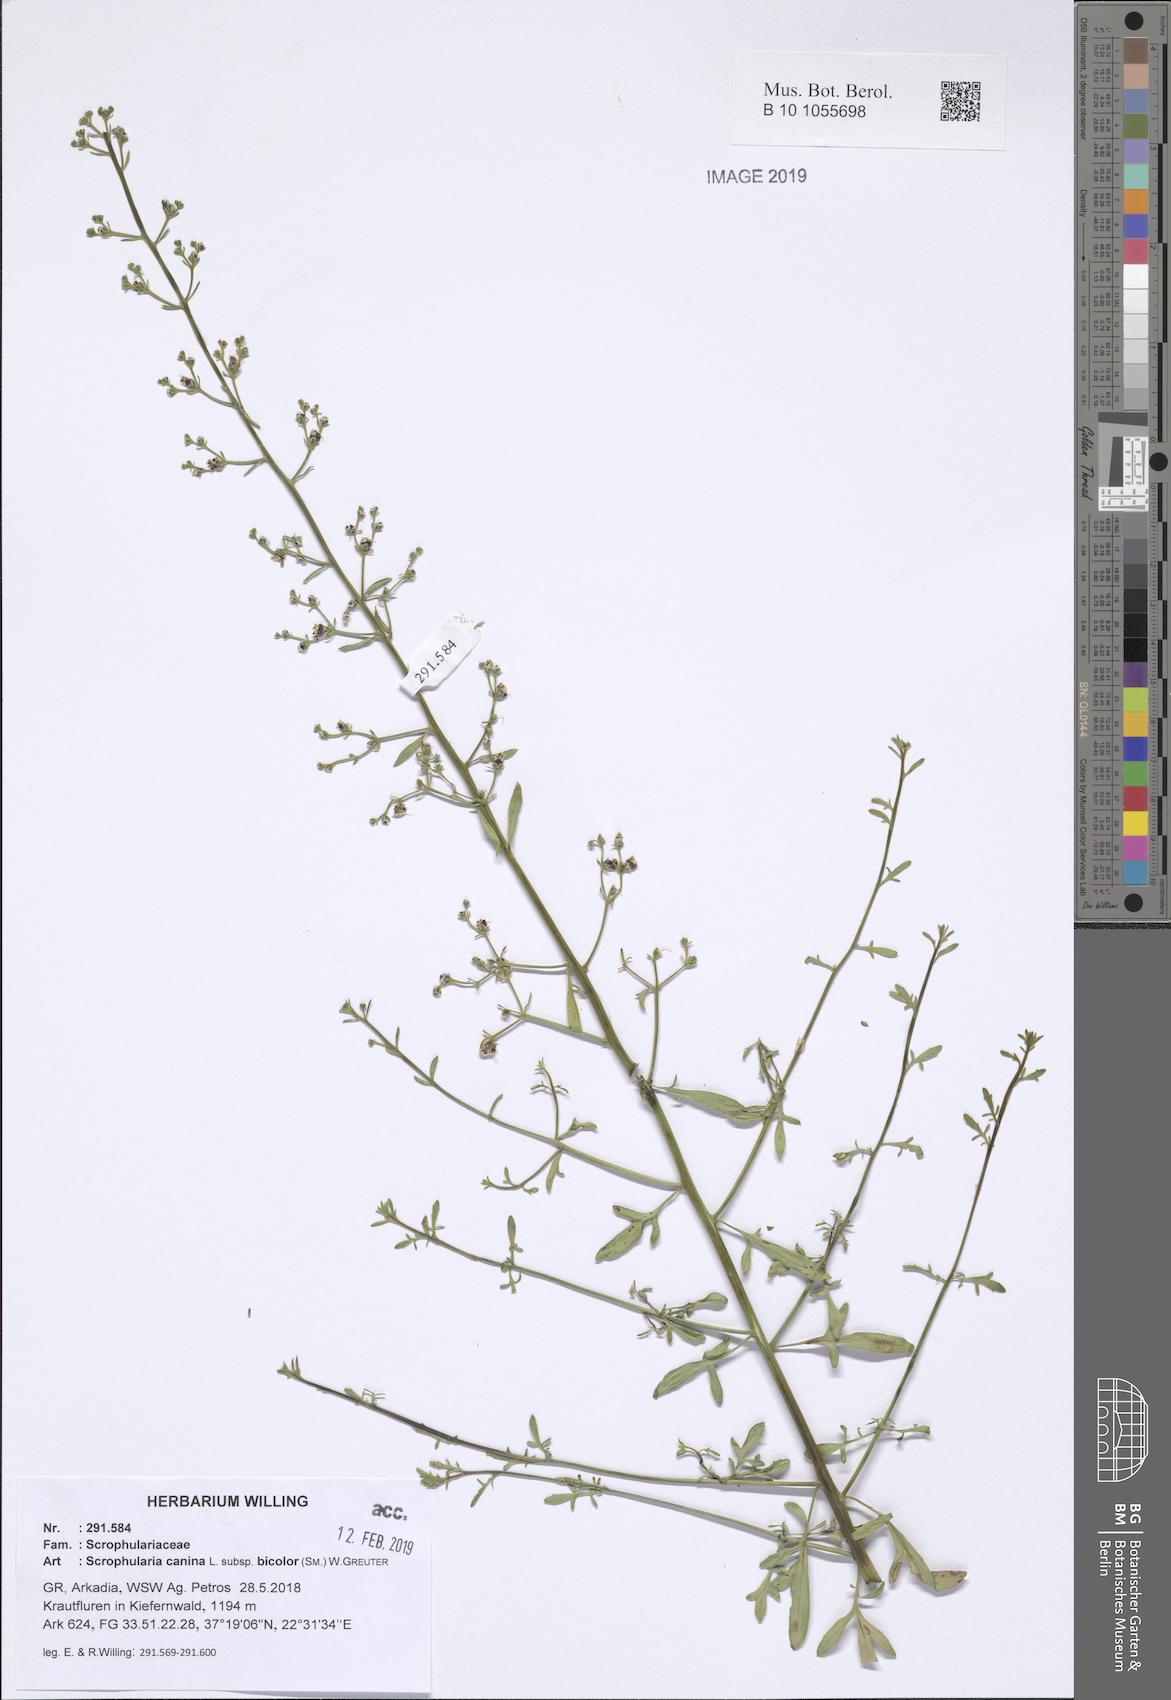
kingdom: Plantae
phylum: Tracheophyta
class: Magnoliopsida
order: Lamiales
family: Scrophulariaceae
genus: Scrophularia
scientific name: Scrophularia canina
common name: French figwort
